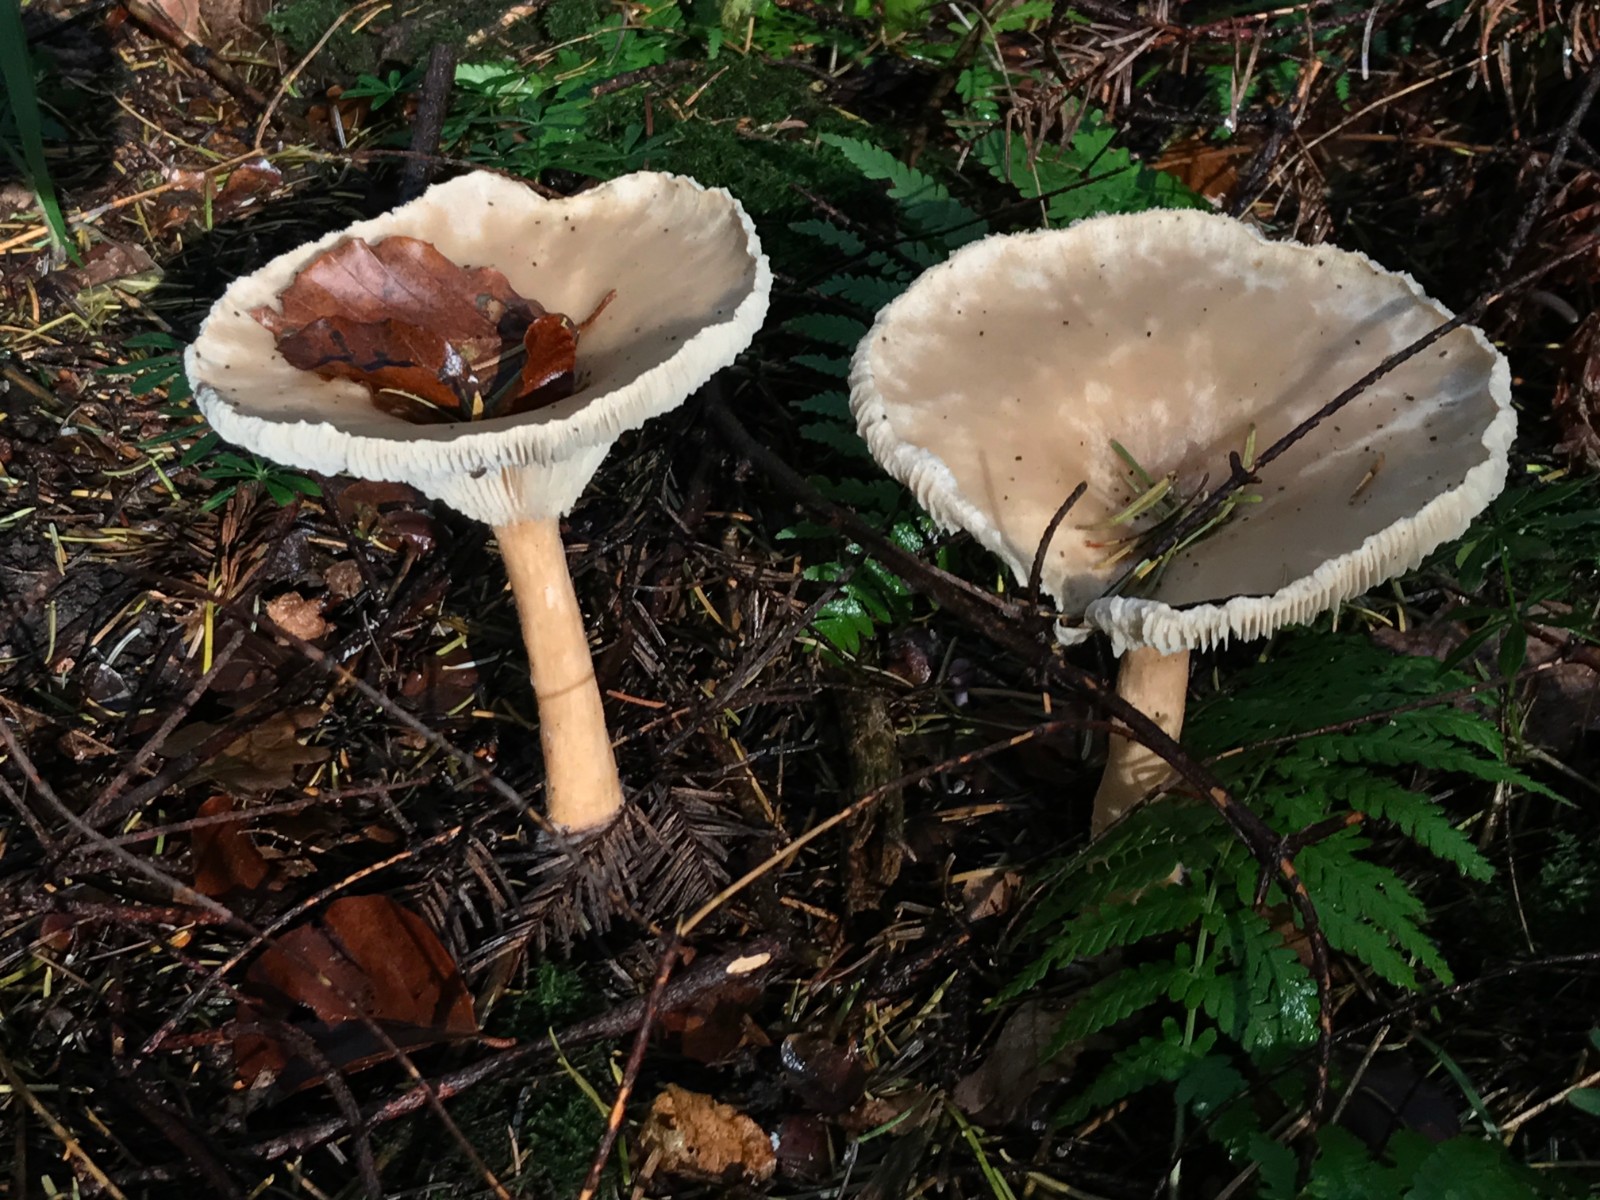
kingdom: Fungi
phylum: Basidiomycota
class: Agaricomycetes
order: Agaricales
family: Tricholomataceae
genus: Infundibulicybe
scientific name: Infundibulicybe geotropa
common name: stor tragthat
